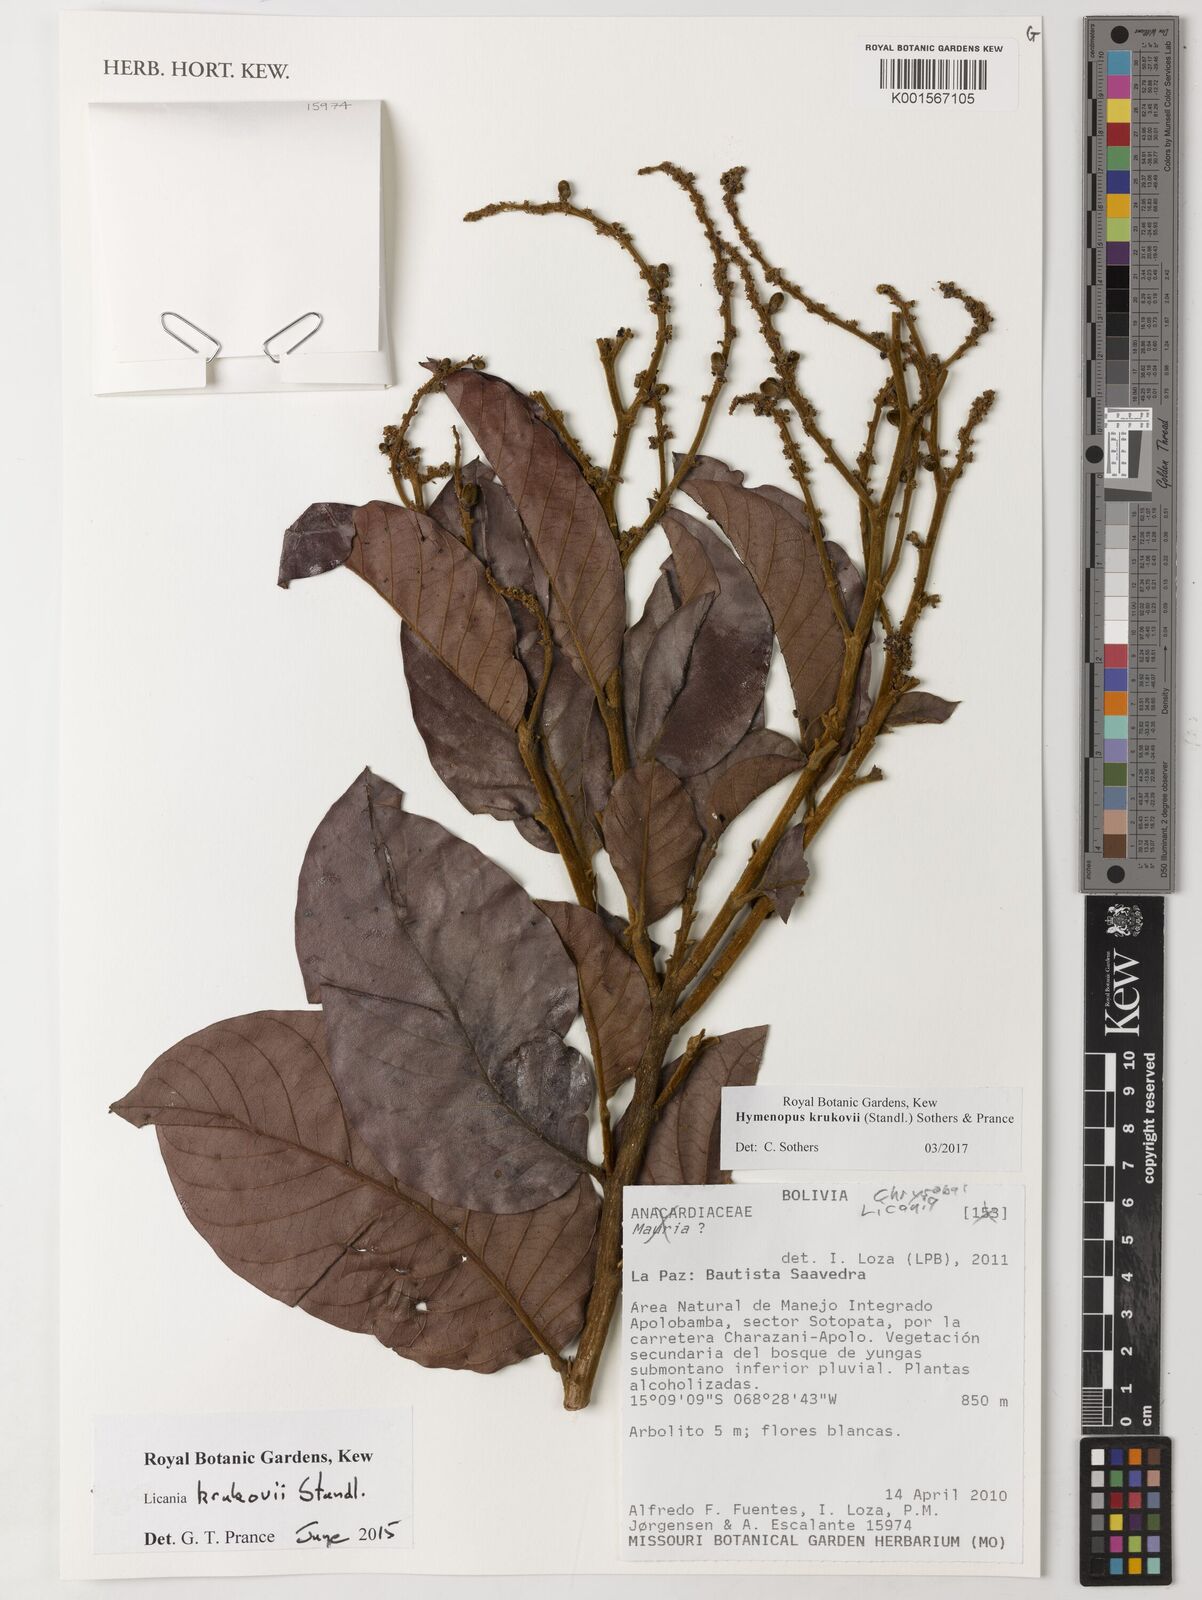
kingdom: Plantae
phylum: Tracheophyta
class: Magnoliopsida
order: Malpighiales
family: Chrysobalanaceae
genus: Hymenopus
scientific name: Hymenopus krukovii
